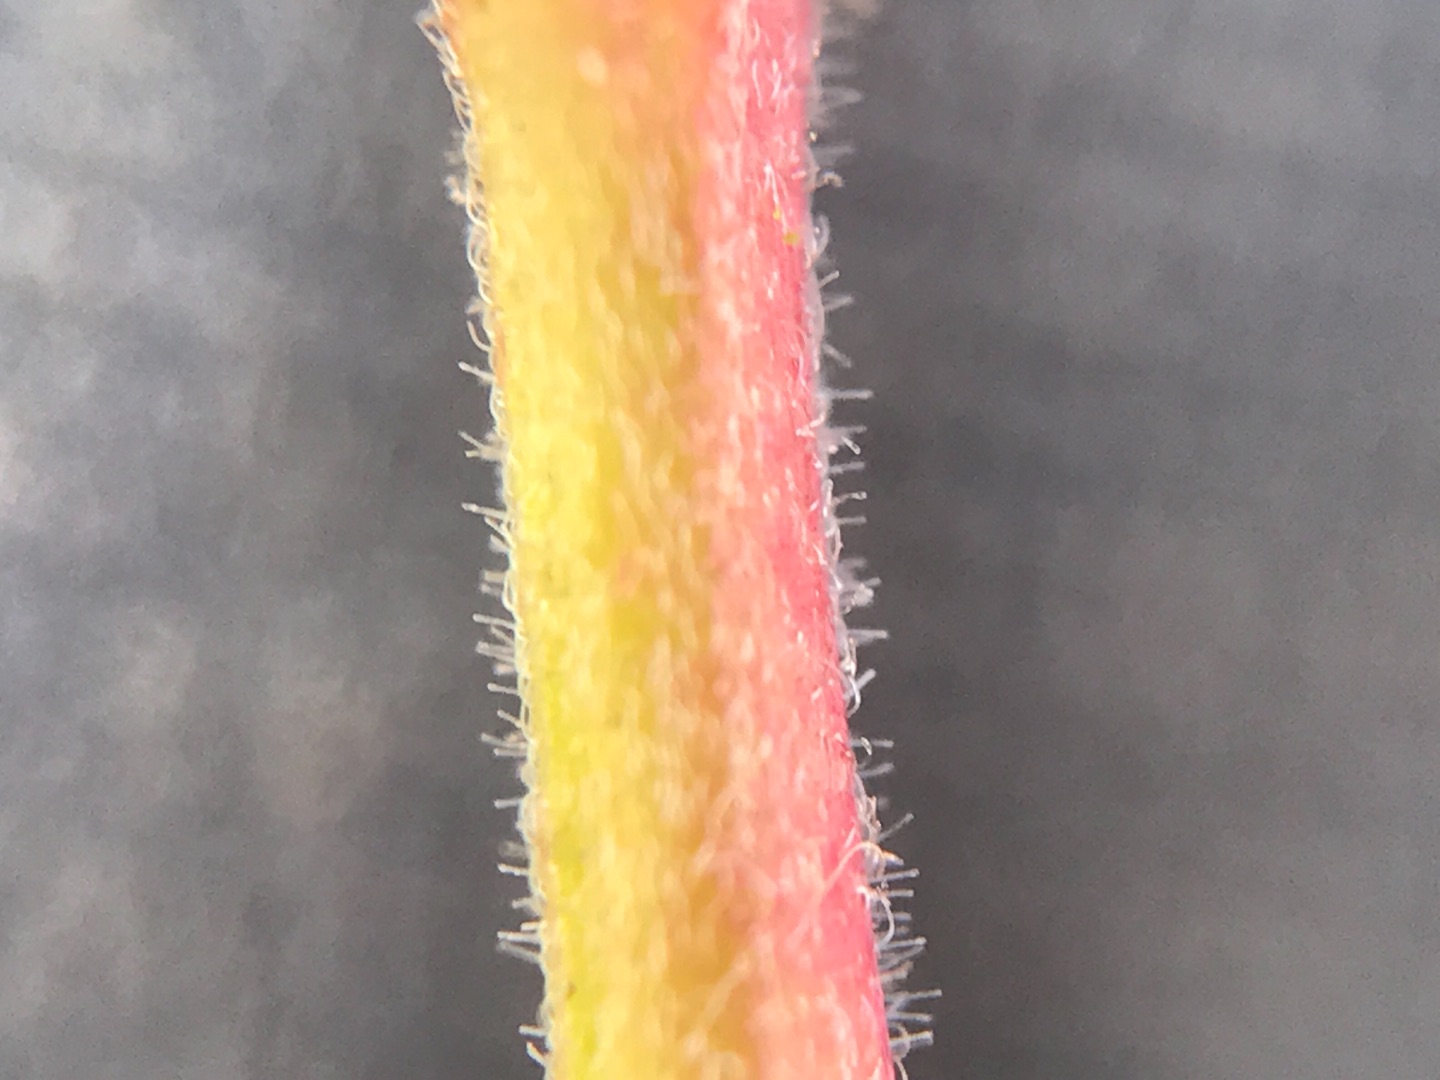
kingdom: Plantae
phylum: Tracheophyta
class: Magnoliopsida
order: Myrtales
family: Onagraceae
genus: Epilobium
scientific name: Epilobium ciliatum
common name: Kirtlet dueurt
